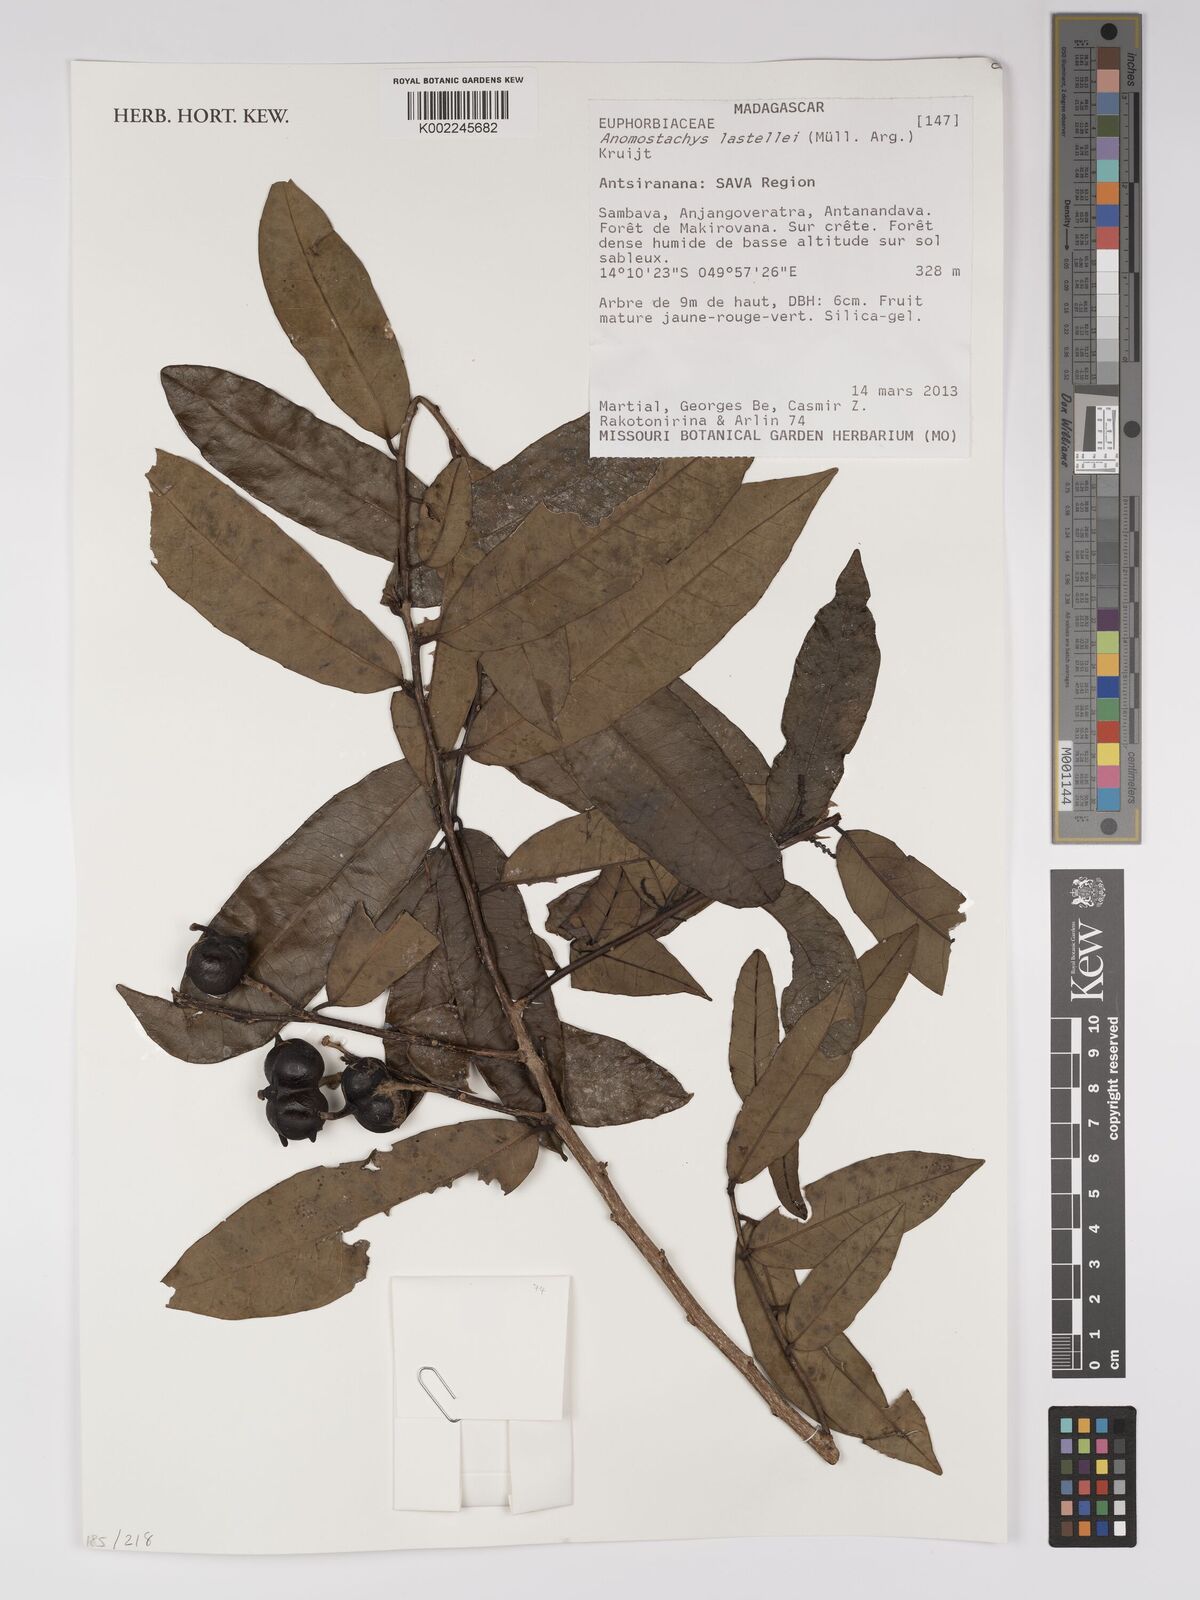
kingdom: Plantae
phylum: Tracheophyta
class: Magnoliopsida
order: Malpighiales
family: Euphorbiaceae
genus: Anomostachys
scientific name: Anomostachys lastellei
